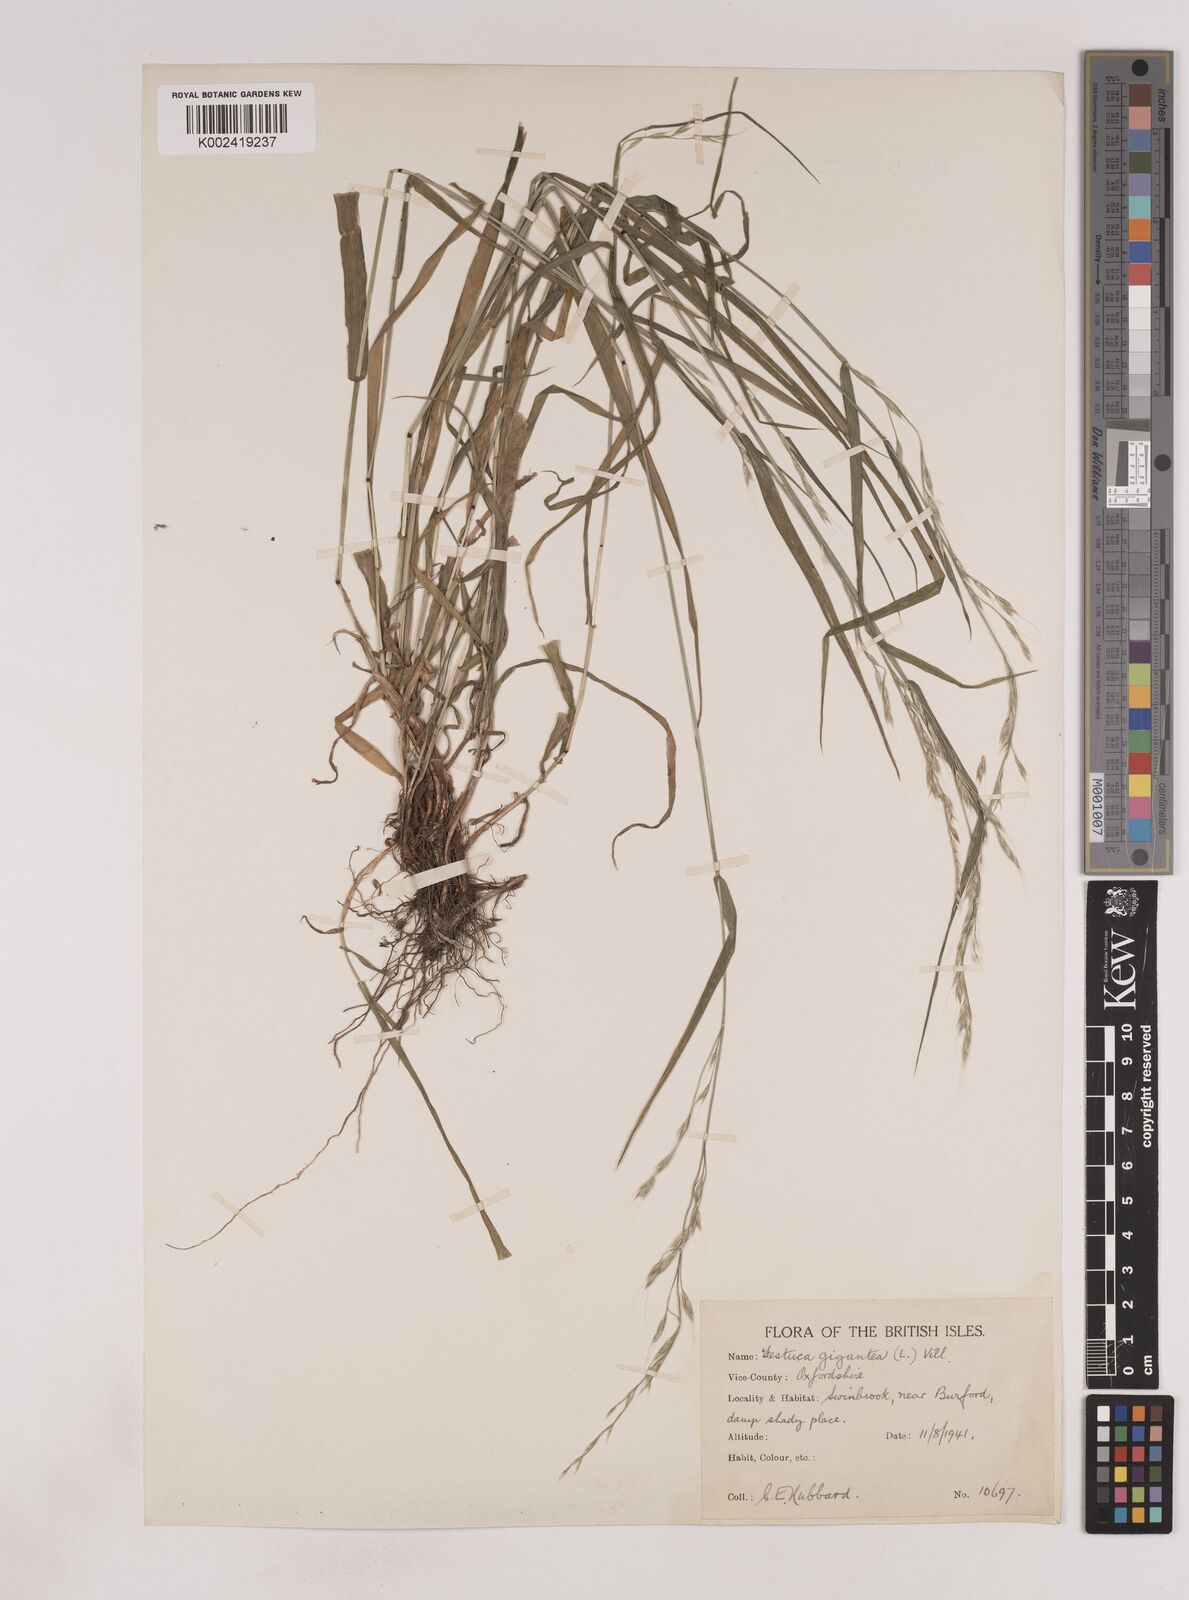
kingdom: Plantae
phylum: Tracheophyta
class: Liliopsida
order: Poales
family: Poaceae
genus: Lolium
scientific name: Lolium giganteum
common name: Giant fescue
